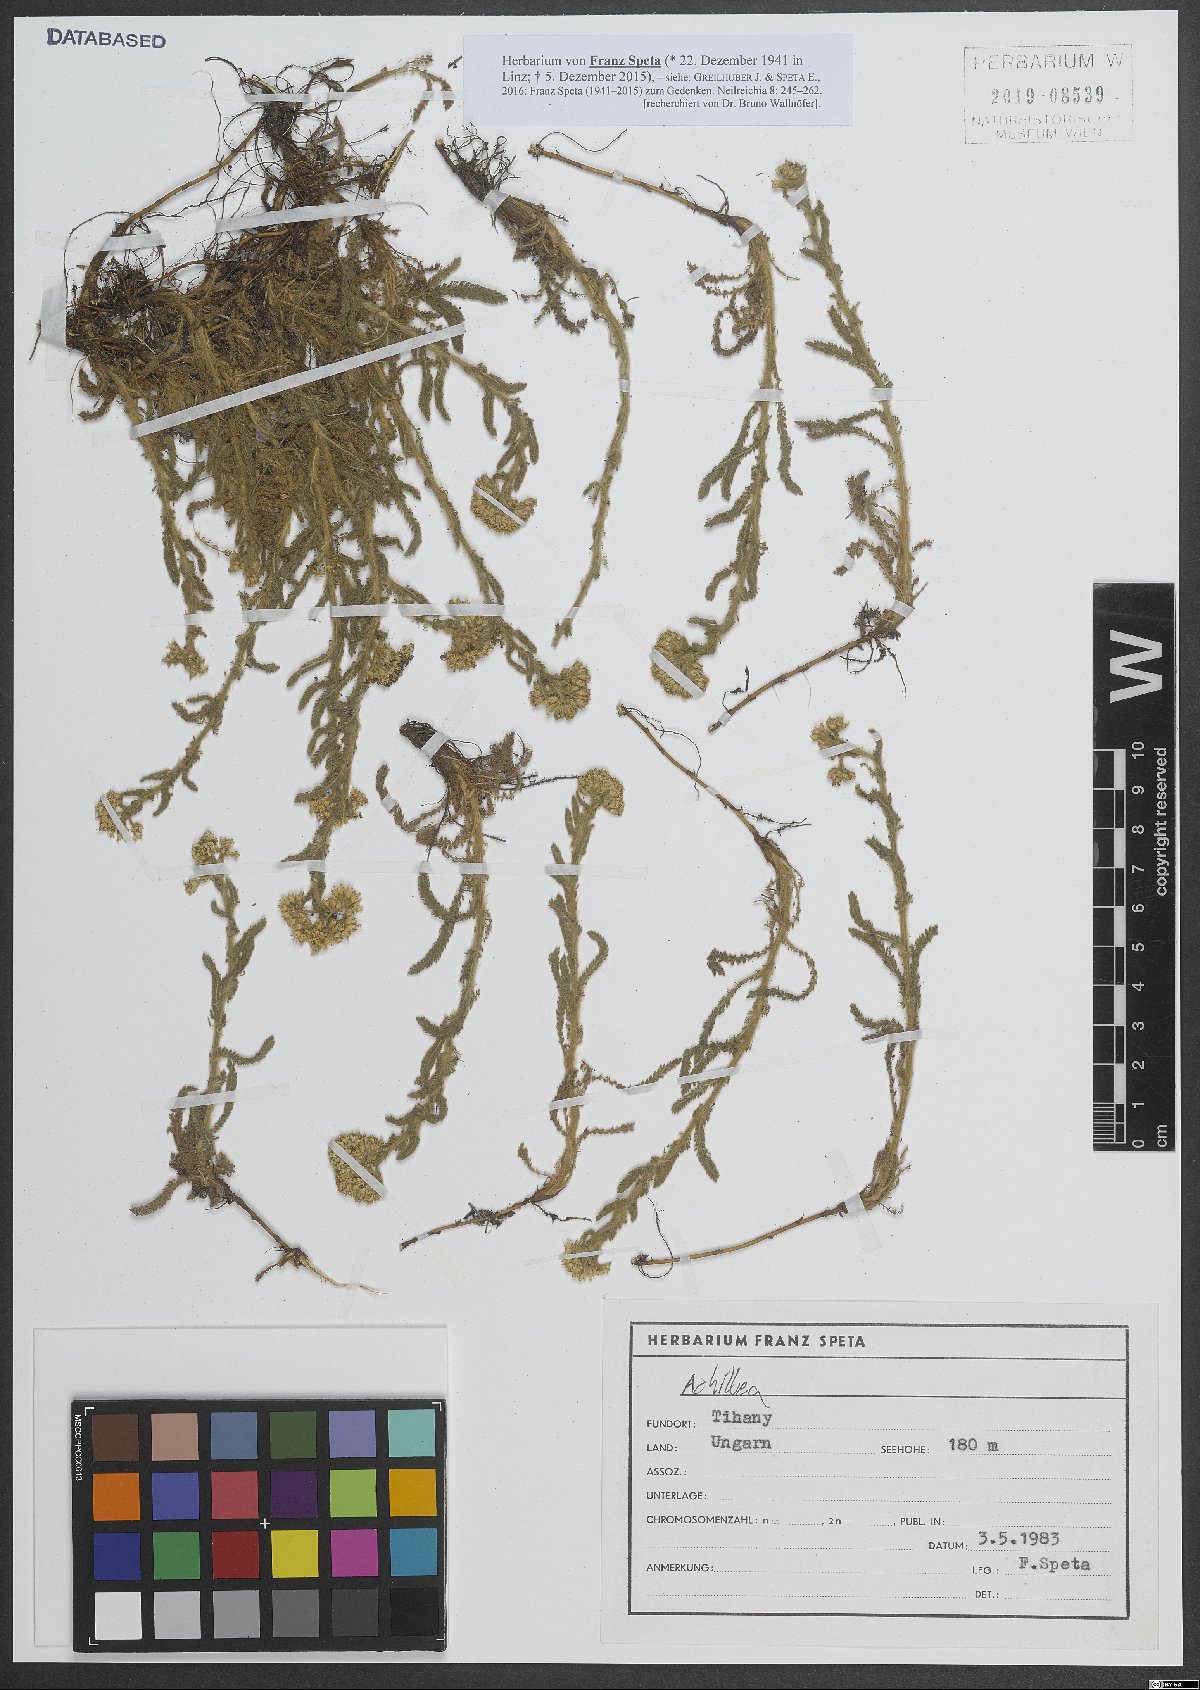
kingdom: Plantae
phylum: Tracheophyta
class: Magnoliopsida
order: Asterales
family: Asteraceae
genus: Achillea
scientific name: Achillea
